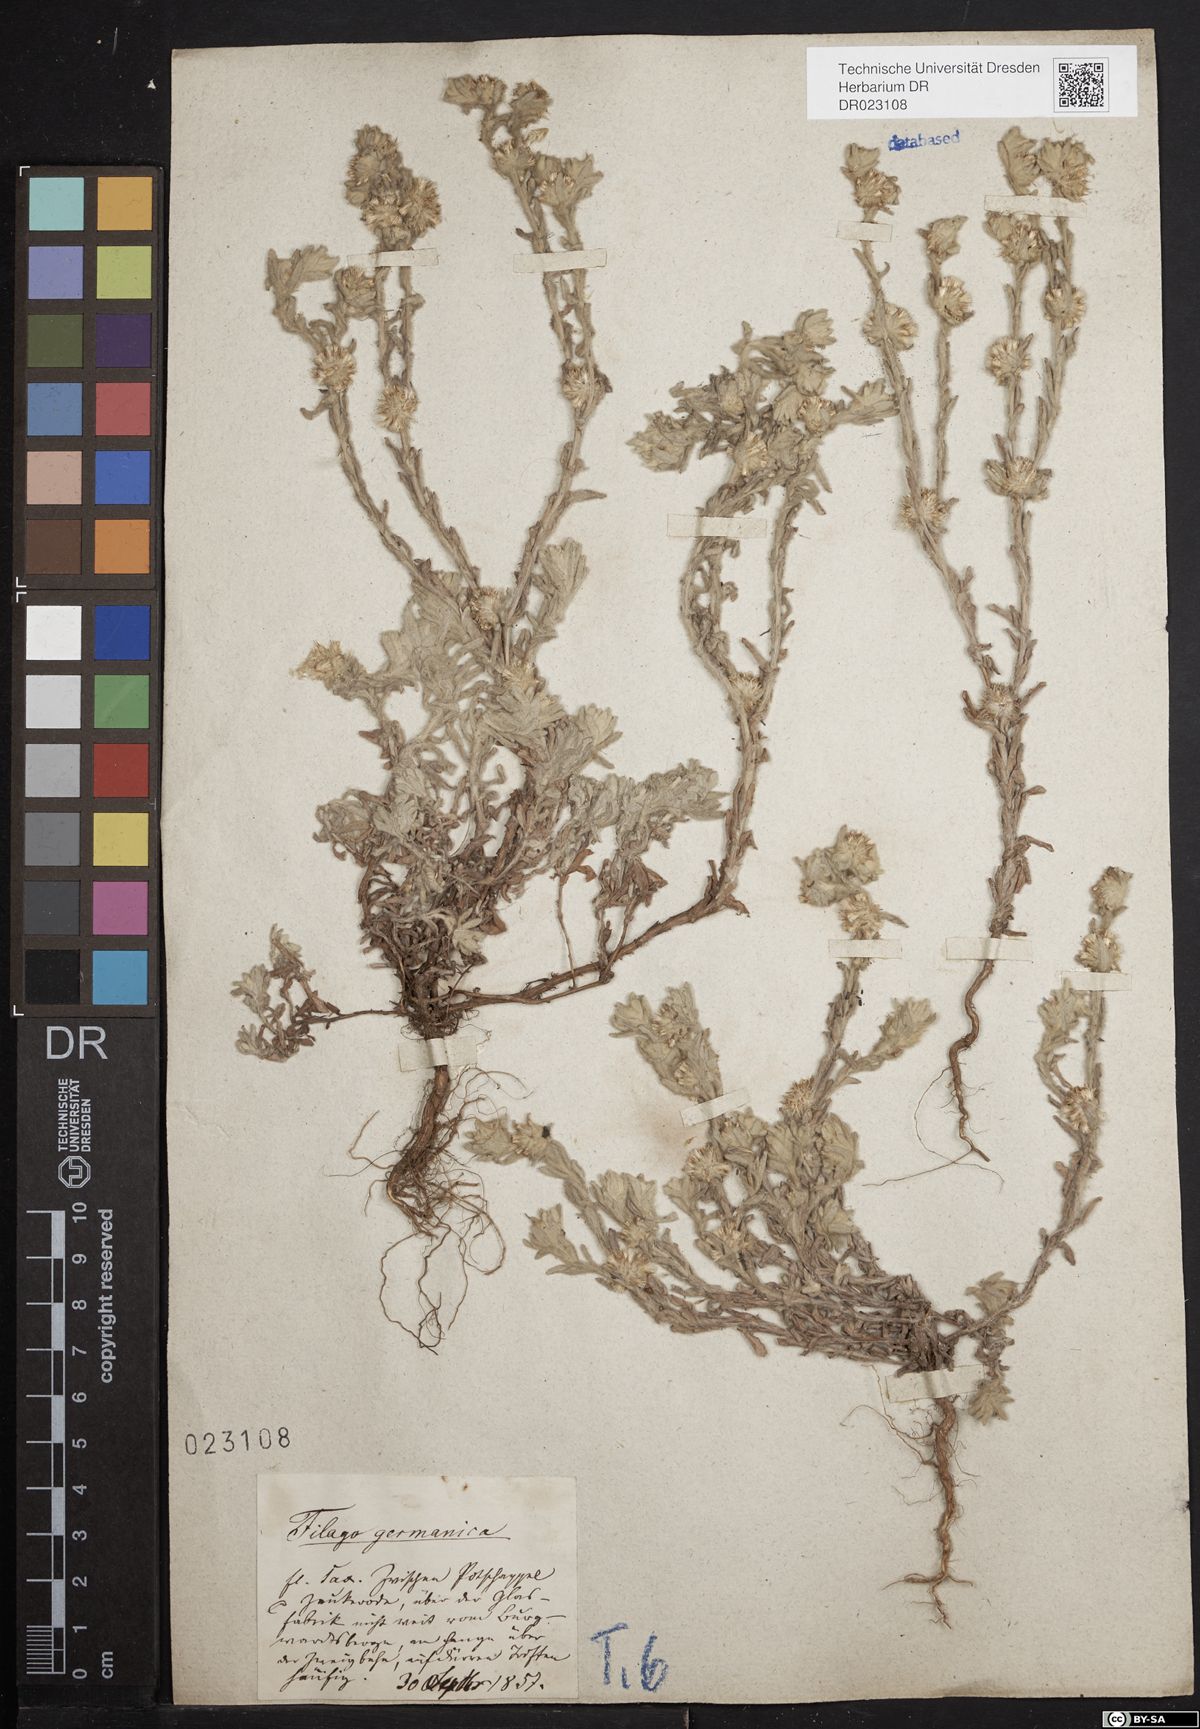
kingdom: Plantae
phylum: Tracheophyta
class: Magnoliopsida
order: Asterales
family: Asteraceae
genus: Filago
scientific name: Filago germanica
